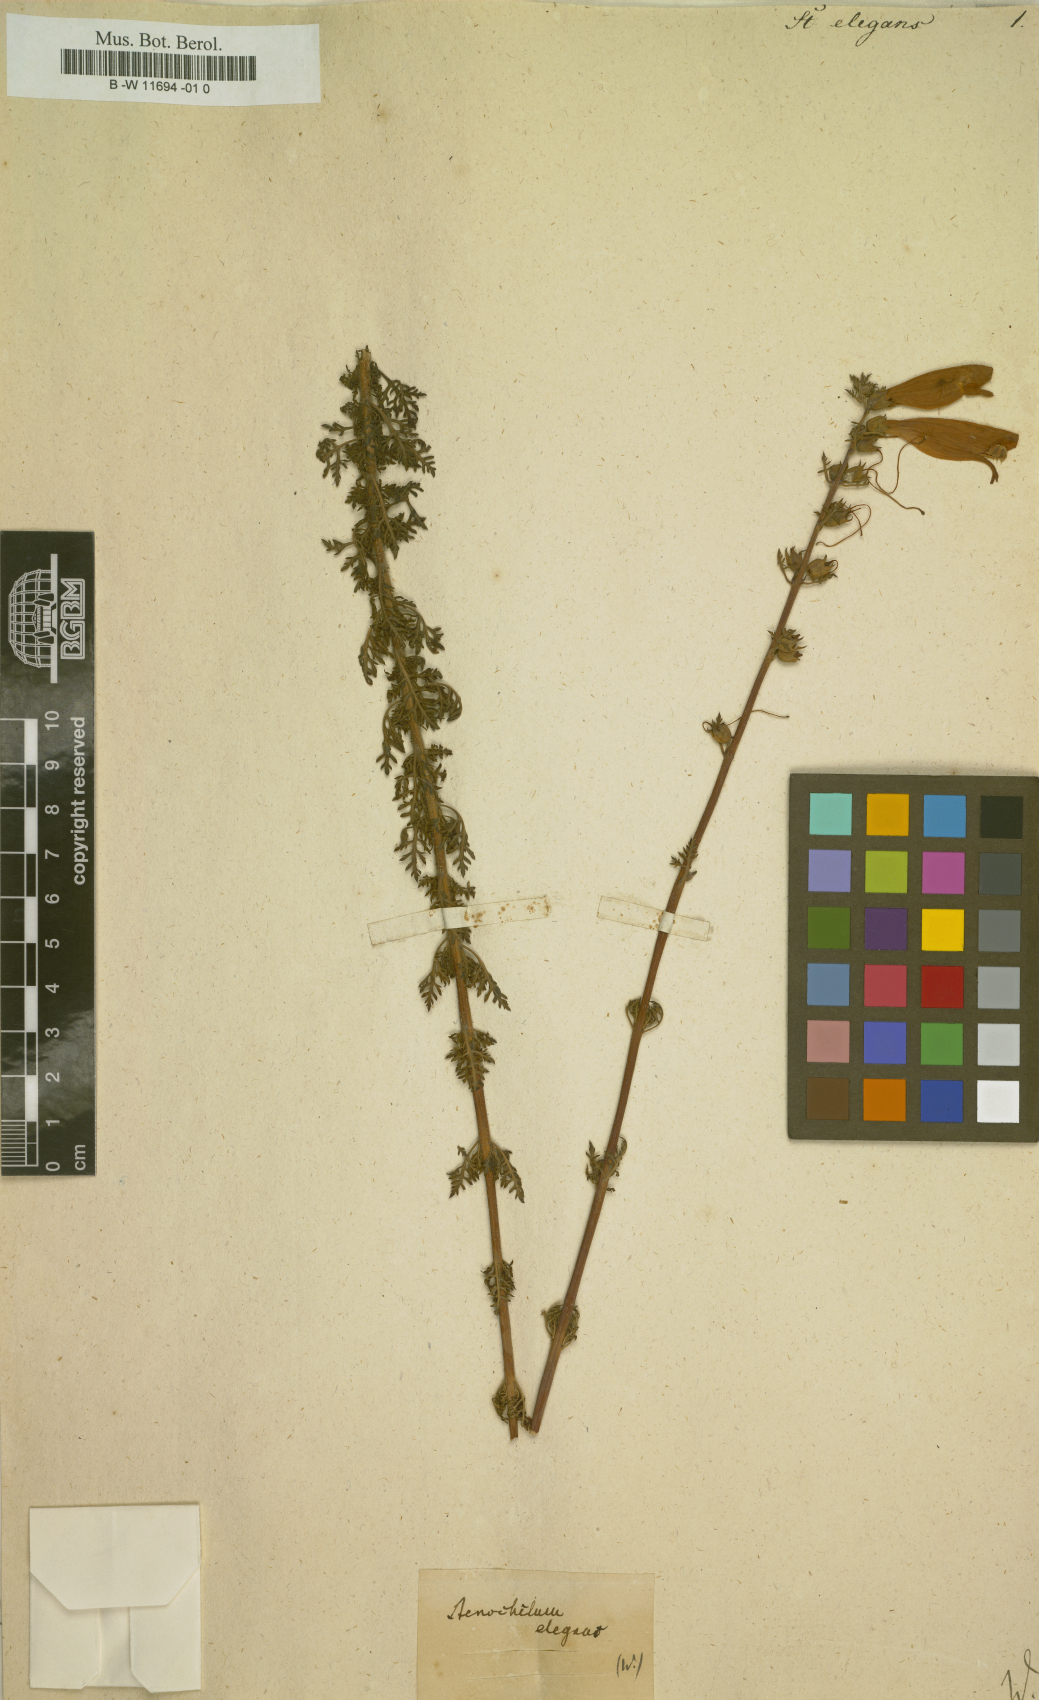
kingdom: Plantae
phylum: Tracheophyta
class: Magnoliopsida
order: Lamiales
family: Scrophulariaceae
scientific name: Scrophulariaceae
